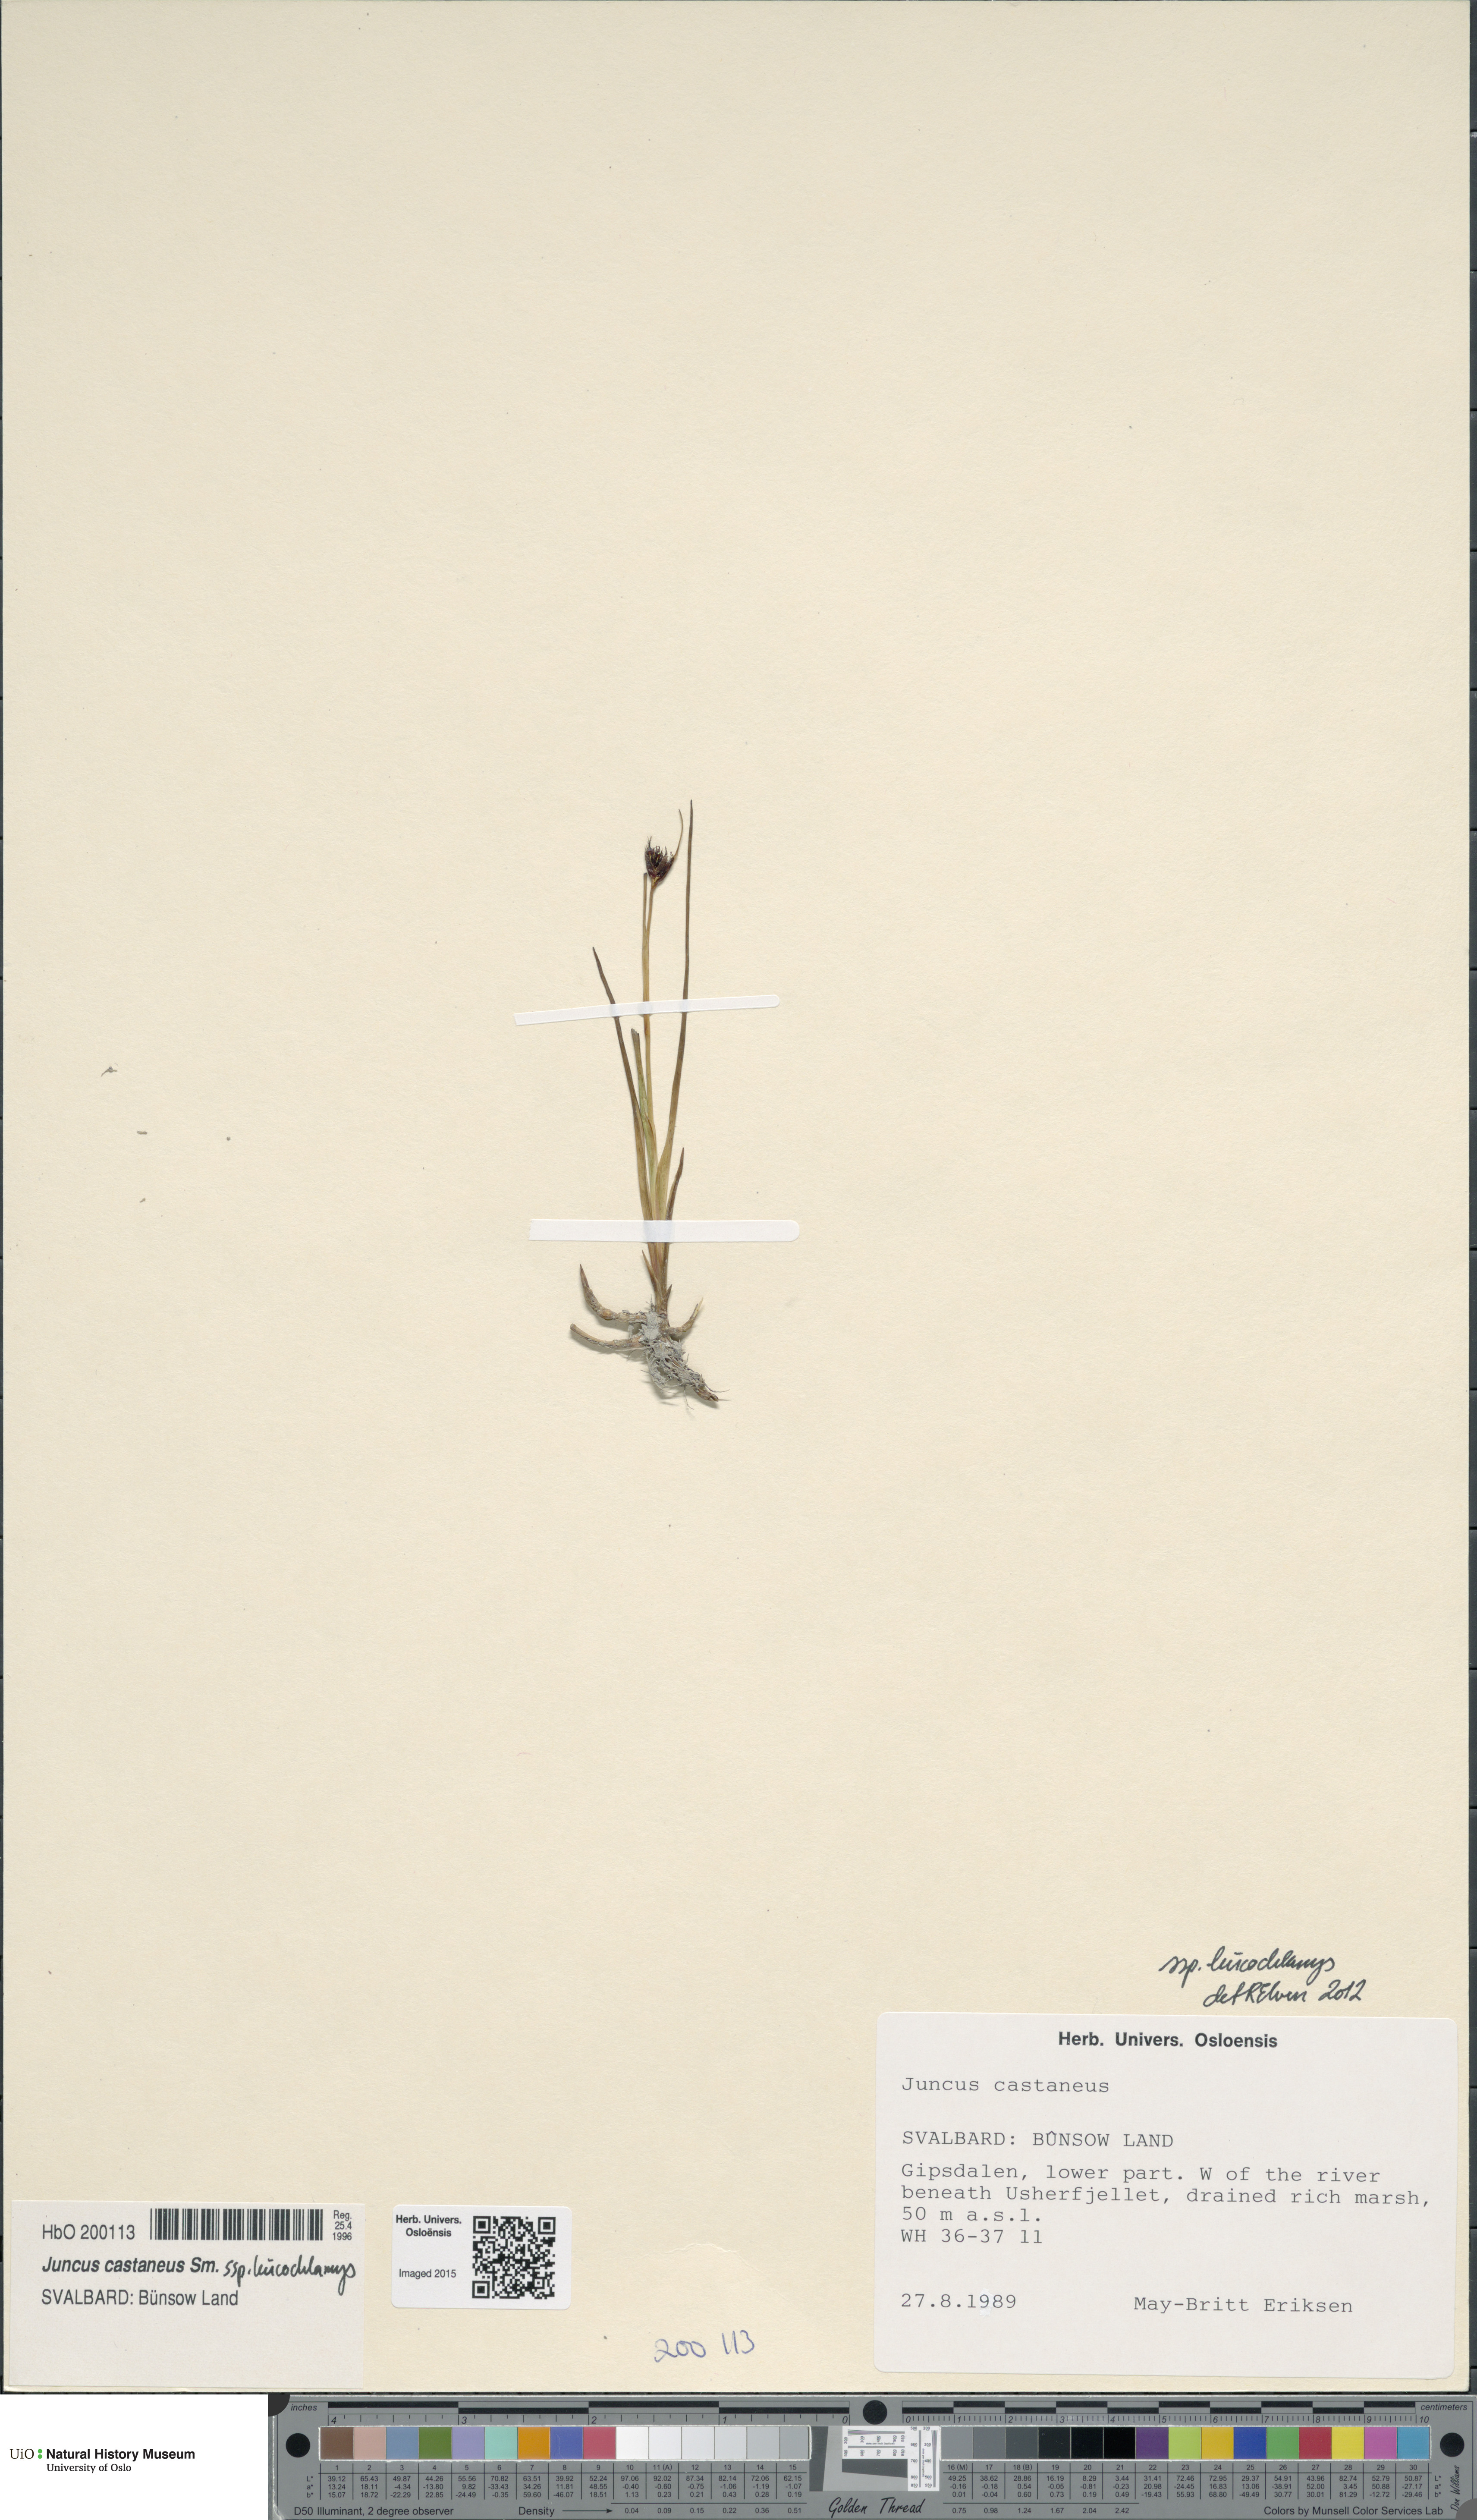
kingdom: Plantae
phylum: Tracheophyta
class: Liliopsida
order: Poales
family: Juncaceae
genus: Juncus
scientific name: Juncus castaneus
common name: Chestnut rush
